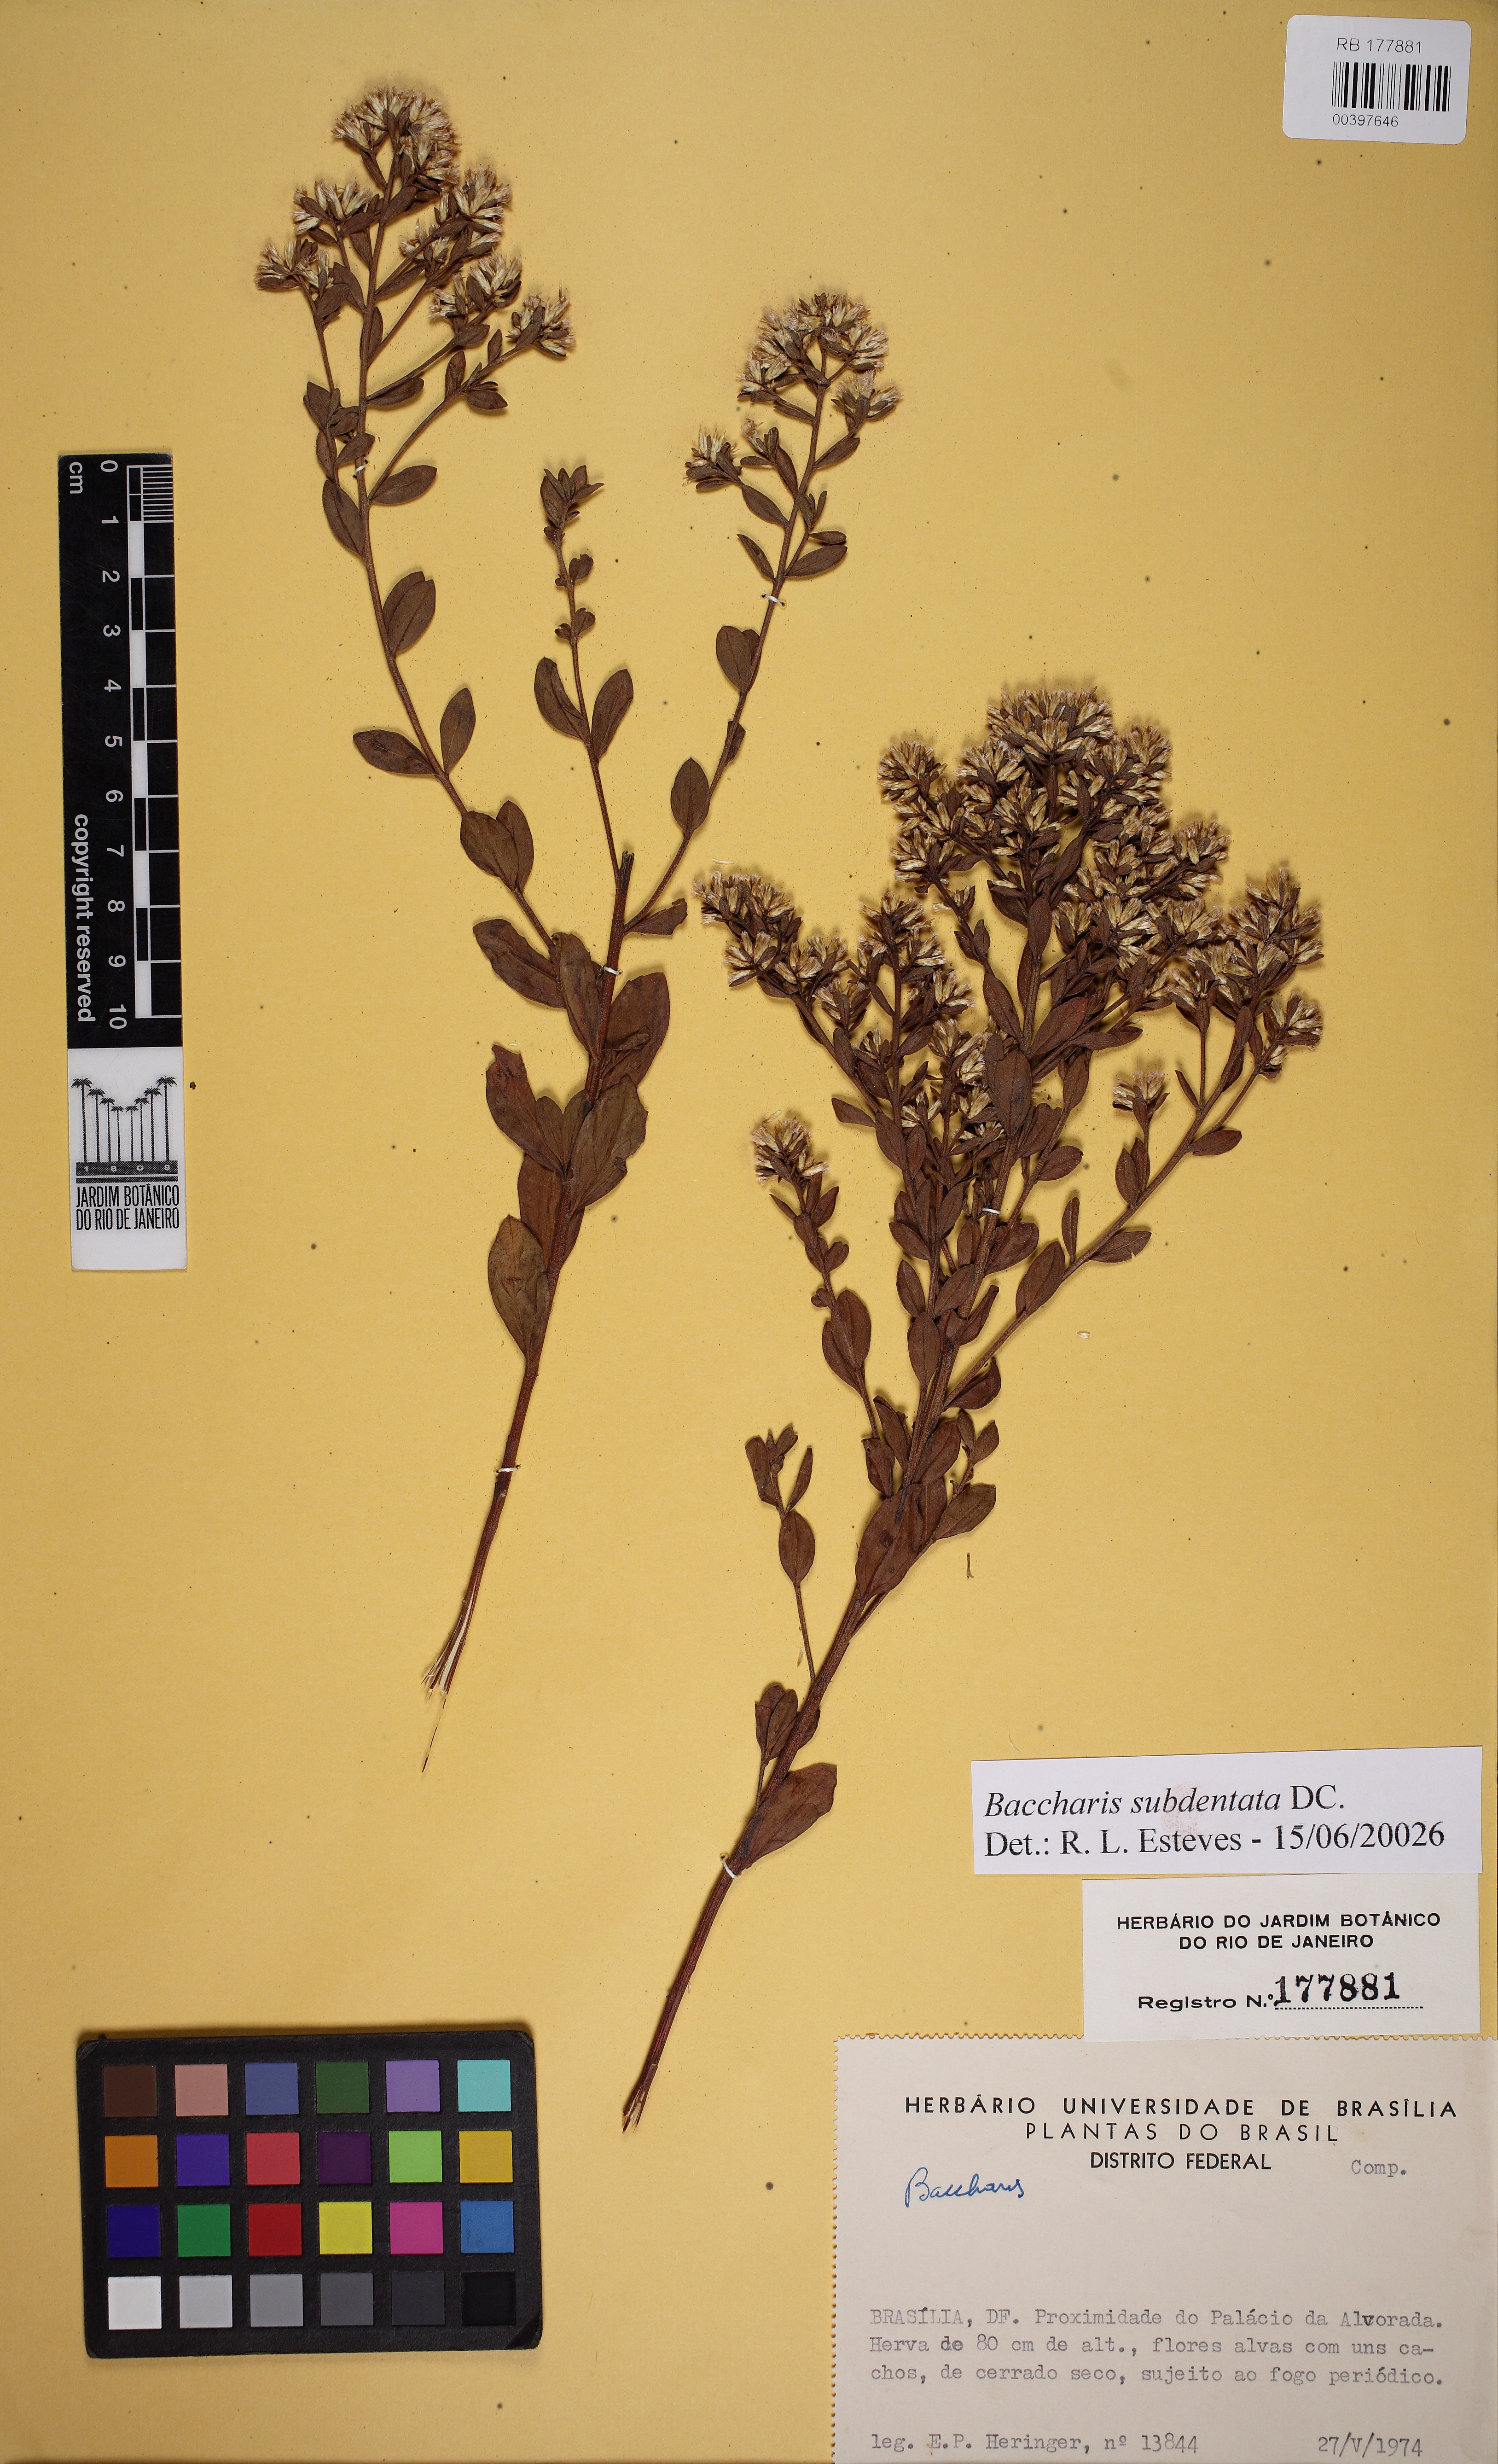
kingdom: Plantae
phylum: Tracheophyta
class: Magnoliopsida
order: Asterales
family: Asteraceae
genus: Baccharis
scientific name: Baccharis subdentata
